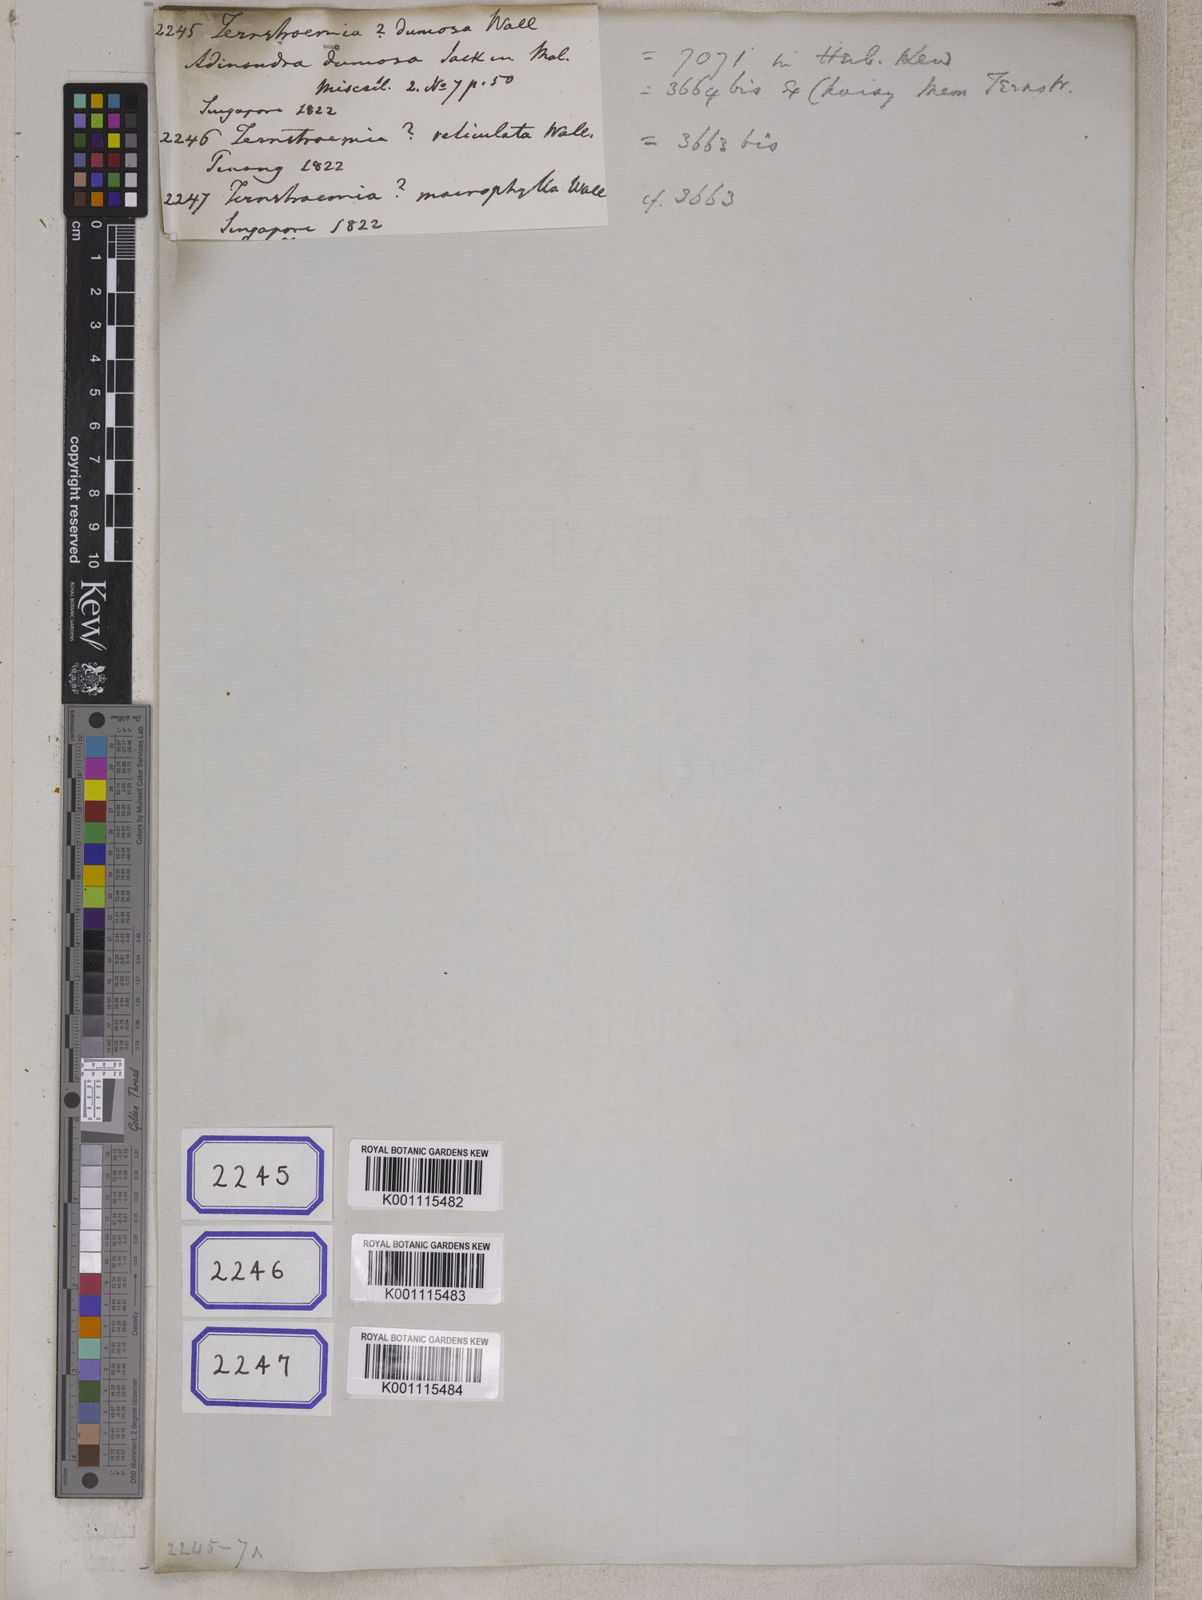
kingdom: Plantae
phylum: Tracheophyta
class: Magnoliopsida
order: Ericales
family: Pentaphylacaceae
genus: Adinandra
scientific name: Adinandra dumosa
